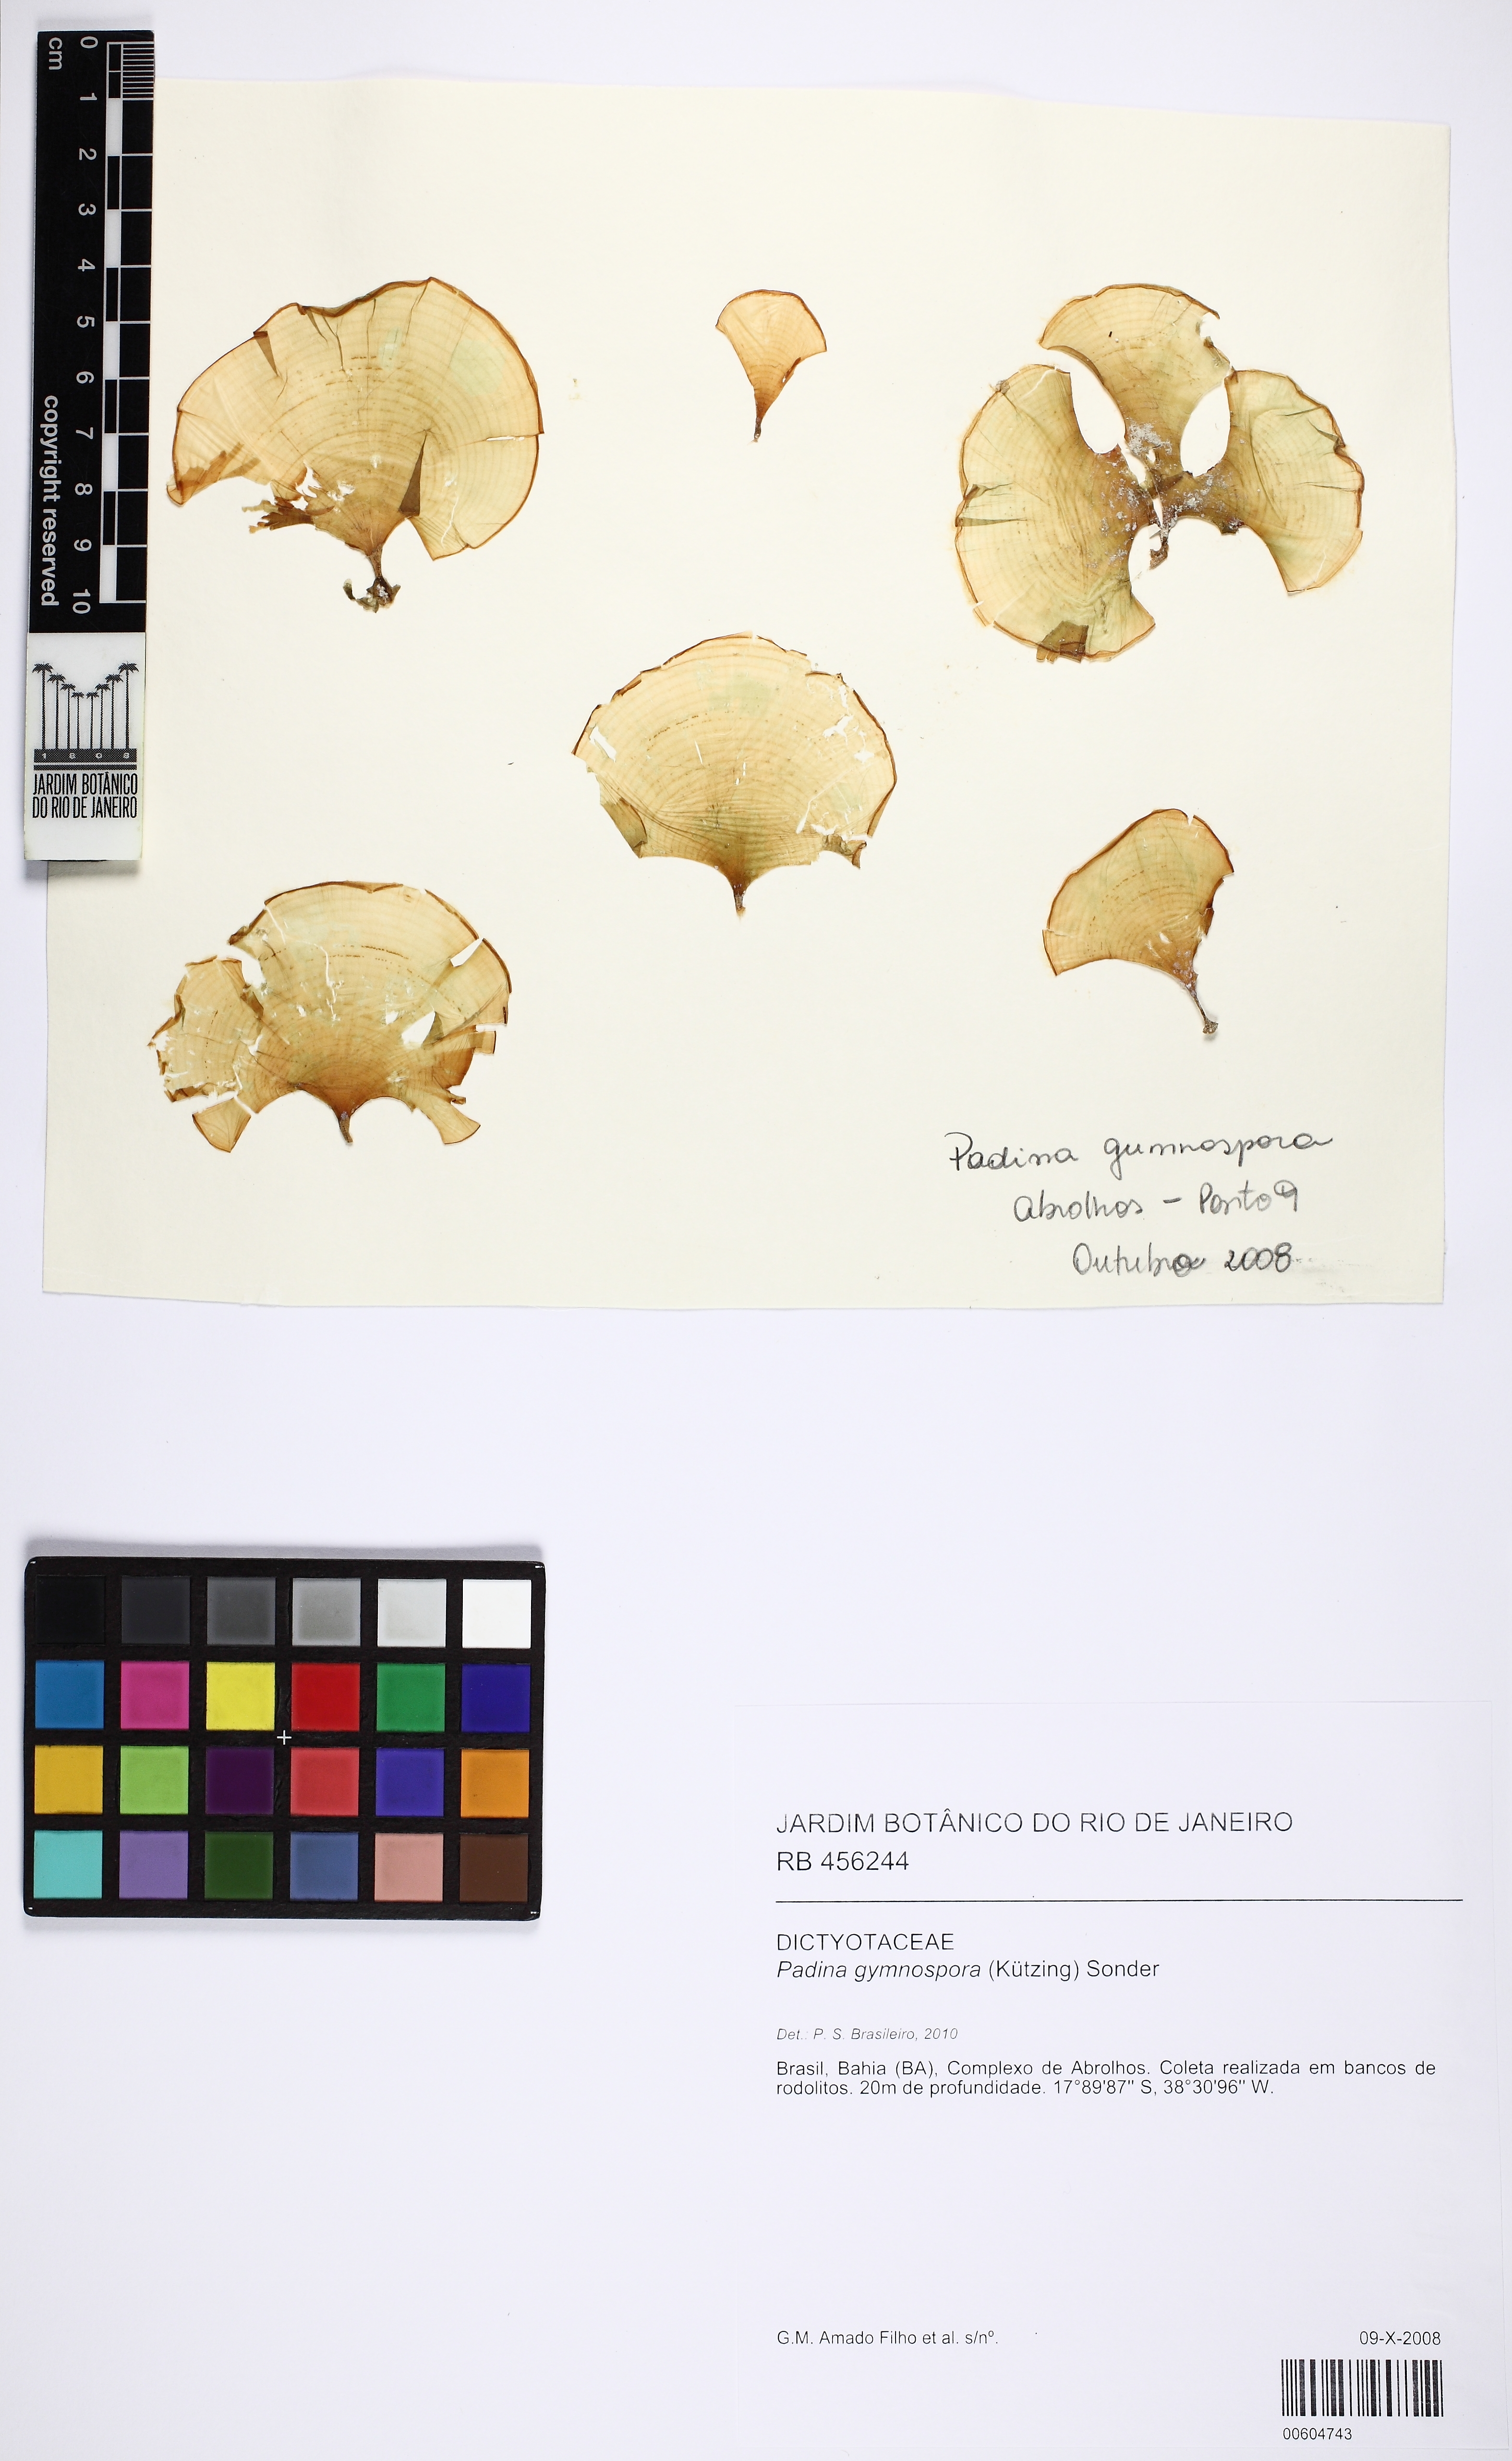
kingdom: Chromista
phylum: Ochrophyta
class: Phaeophyceae
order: Dictyotales
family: Dictyotaceae
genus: Padina
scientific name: Padina gymnospora
